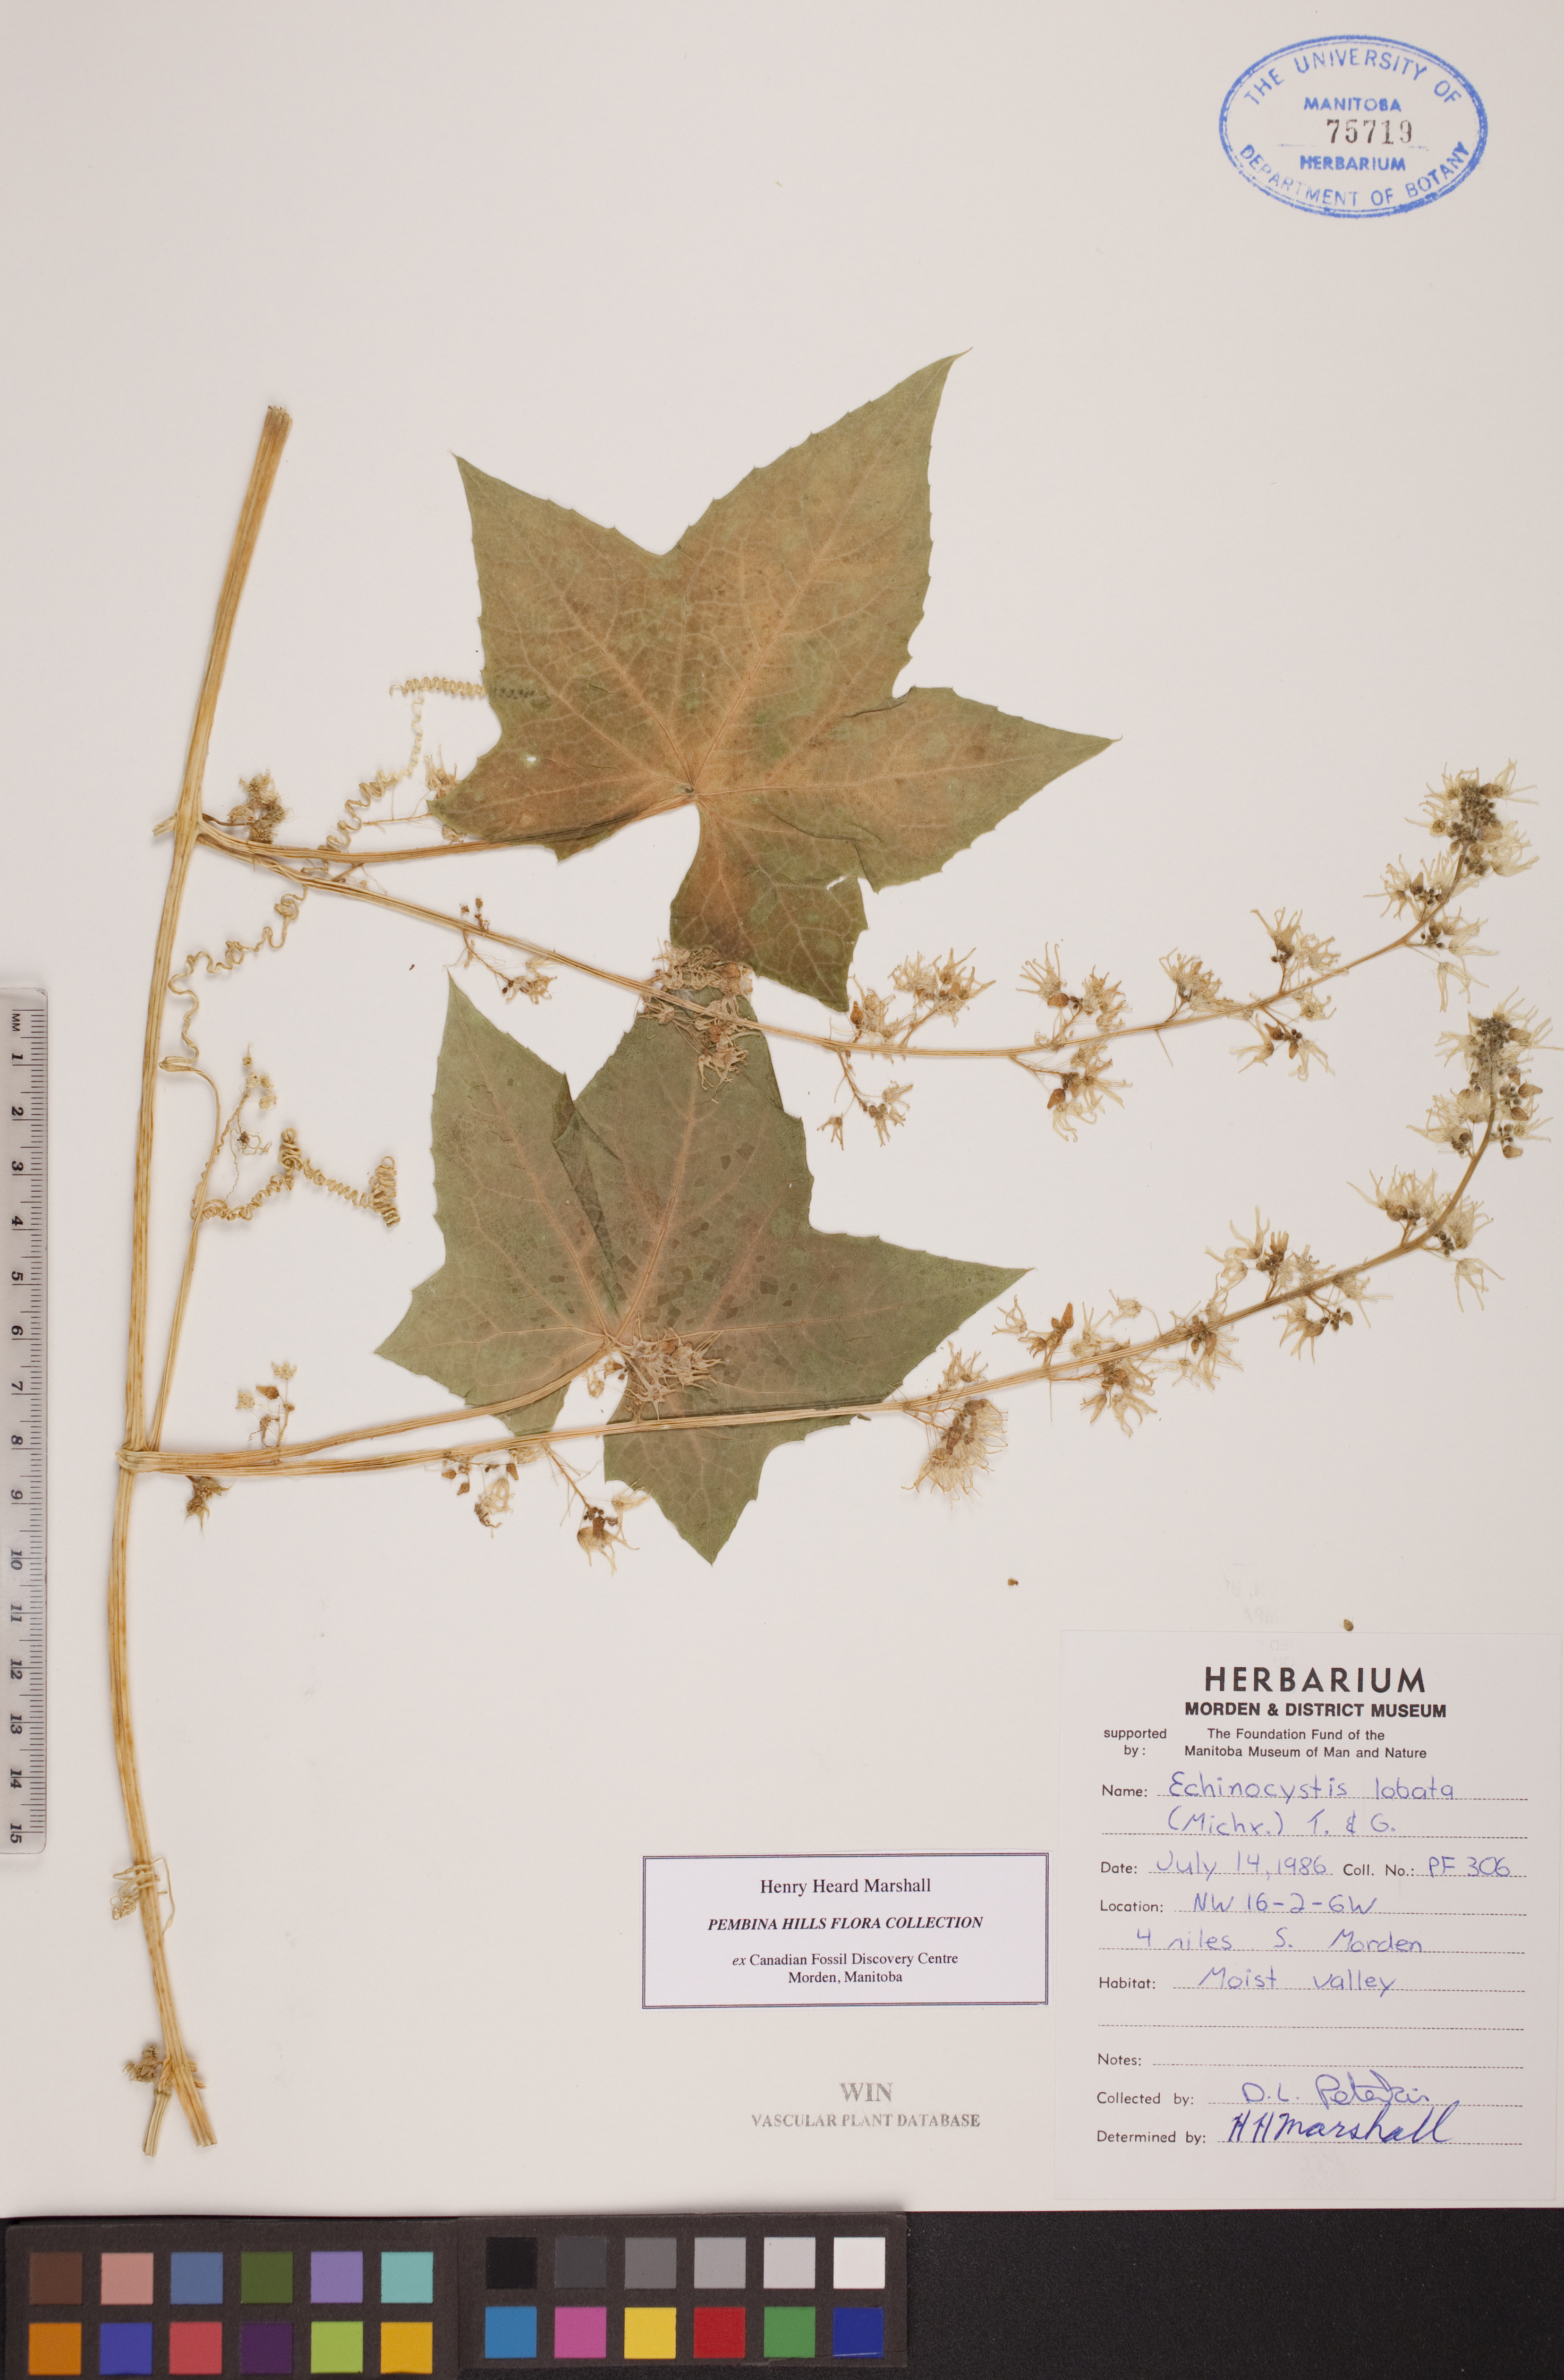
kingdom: Plantae
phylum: Tracheophyta
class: Magnoliopsida
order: Cucurbitales
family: Cucurbitaceae
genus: Echinocystis
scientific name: Echinocystis lobata
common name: Wild cucumber
